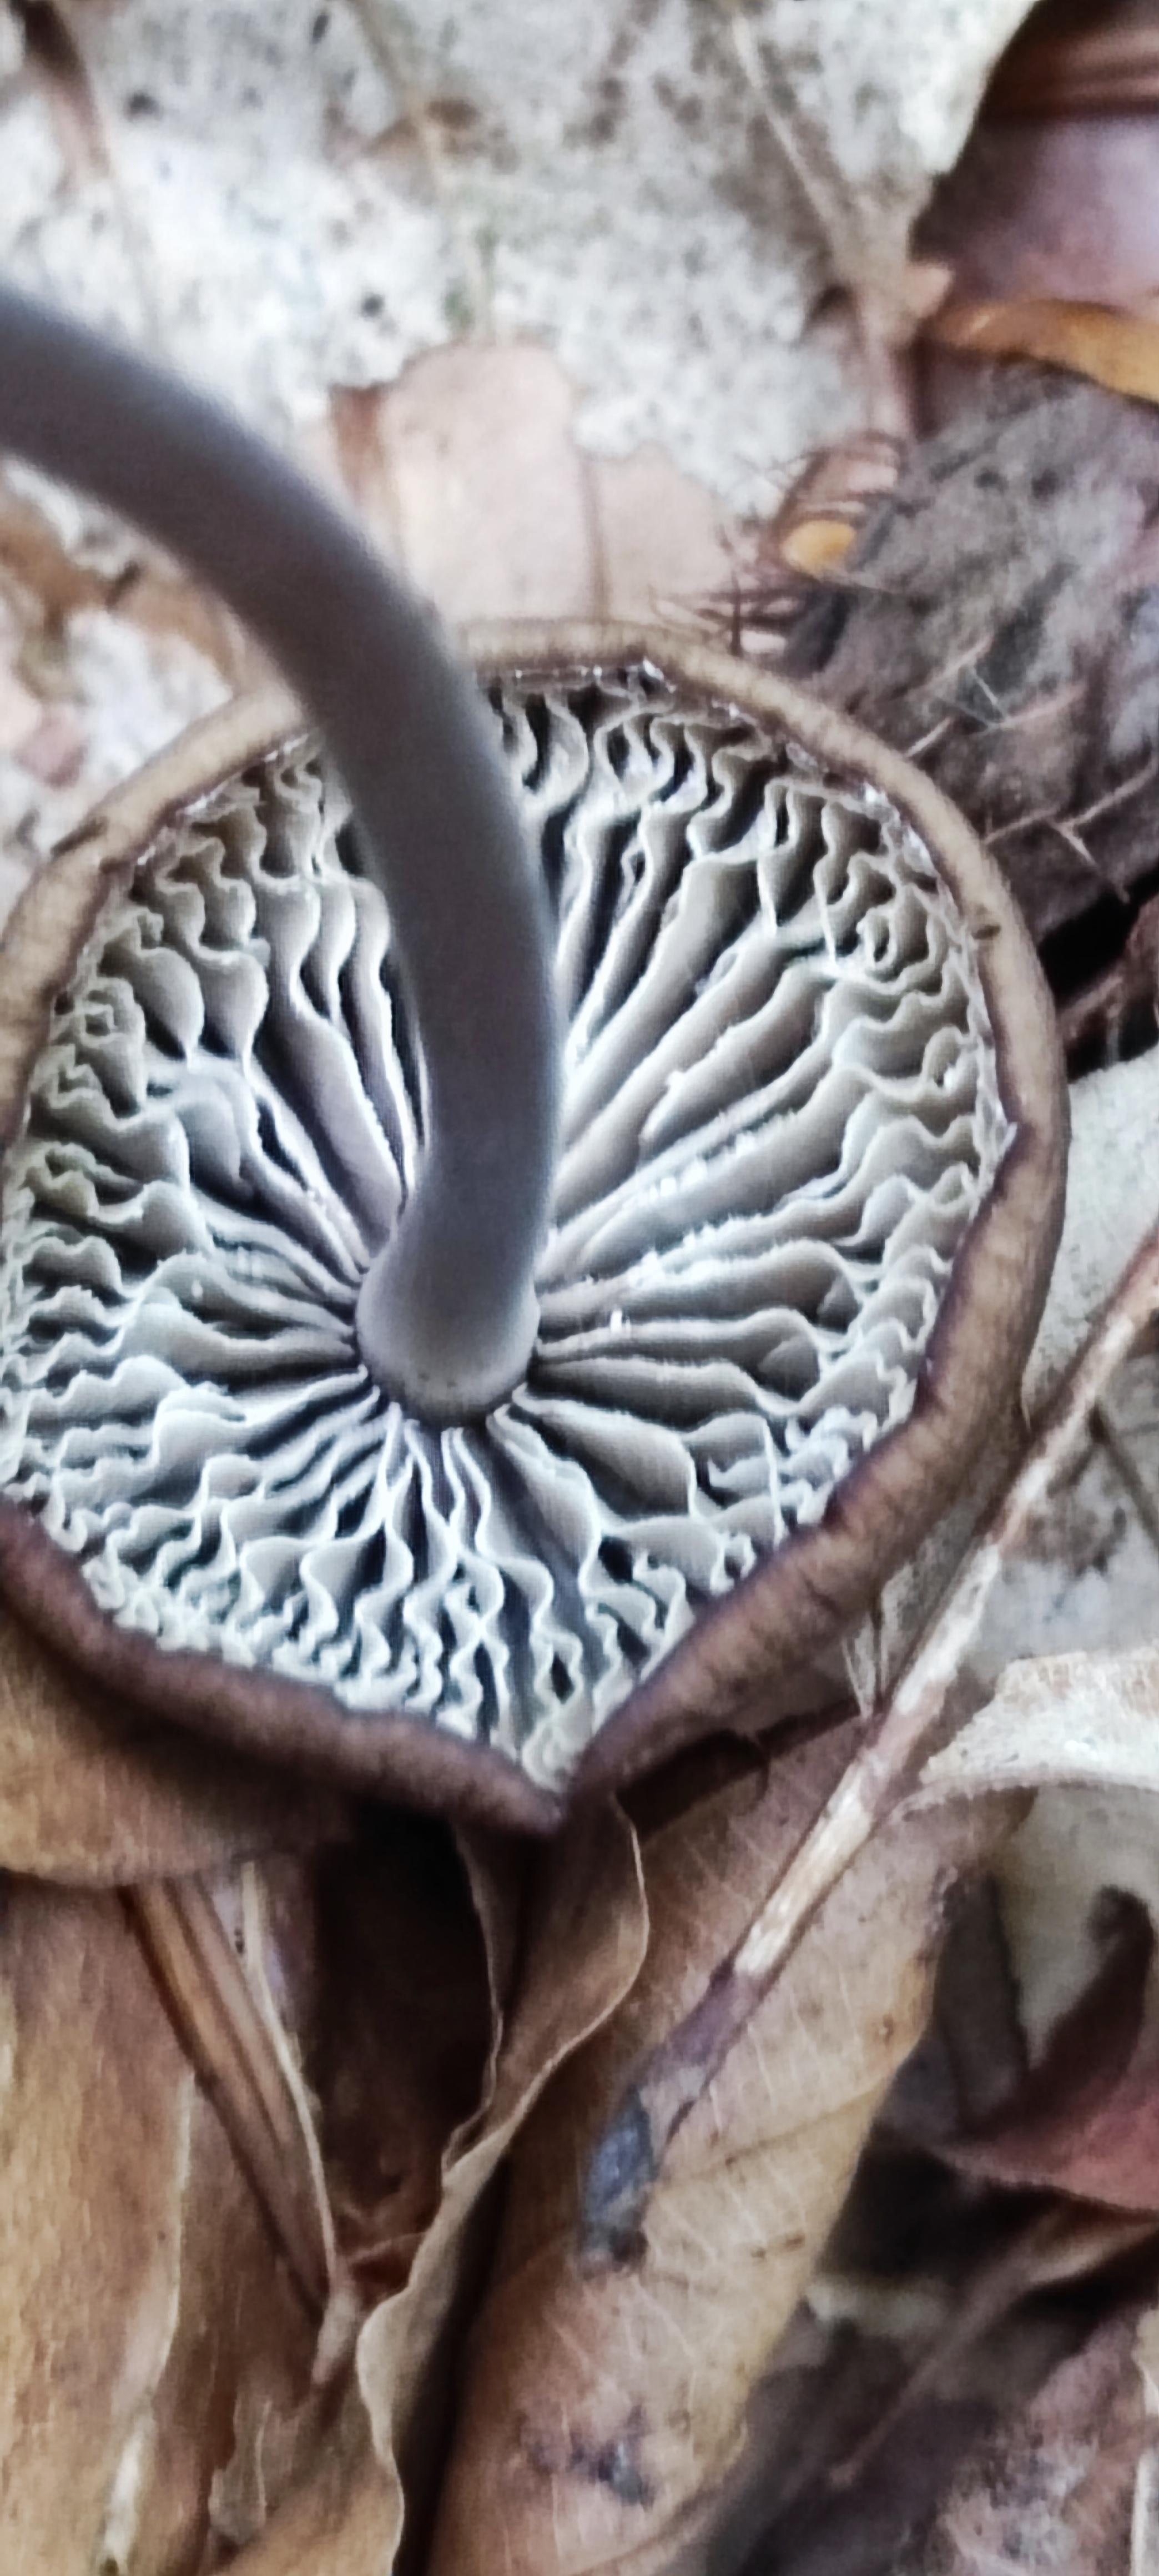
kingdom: Fungi
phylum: Basidiomycota
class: Agaricomycetes
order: Agaricales
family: Omphalotaceae
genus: Mycetinis
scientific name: Mycetinis alliaceus
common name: stor løghat
